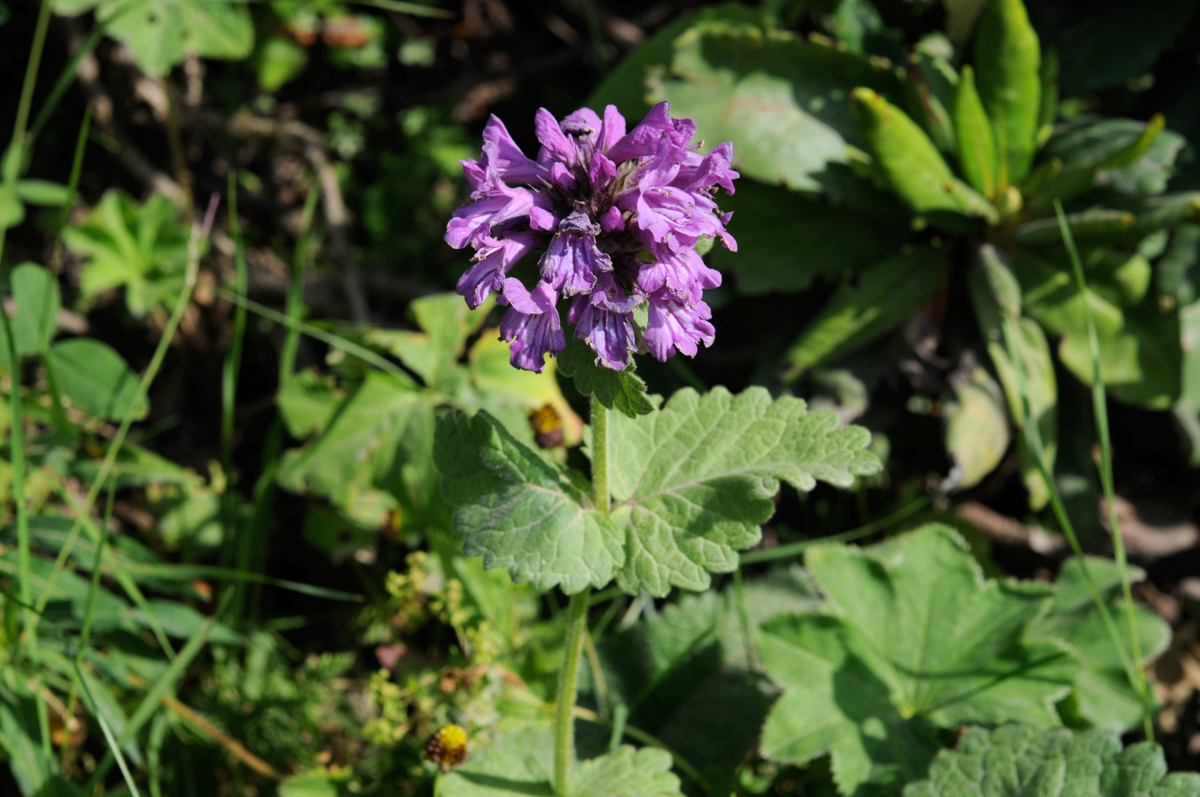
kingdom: Plantae
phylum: Tracheophyta
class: Magnoliopsida
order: Lamiales
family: Lamiaceae
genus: Betonica
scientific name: Betonica macrantha
